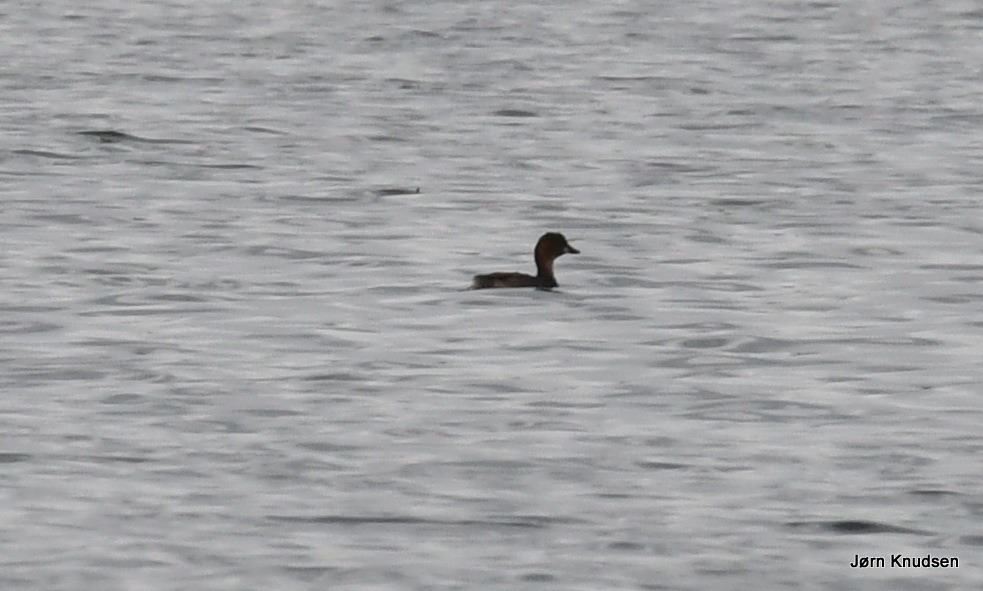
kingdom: Animalia
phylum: Chordata
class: Aves
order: Podicipediformes
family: Podicipedidae
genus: Tachybaptus
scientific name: Tachybaptus ruficollis
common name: Lille lappedykker
